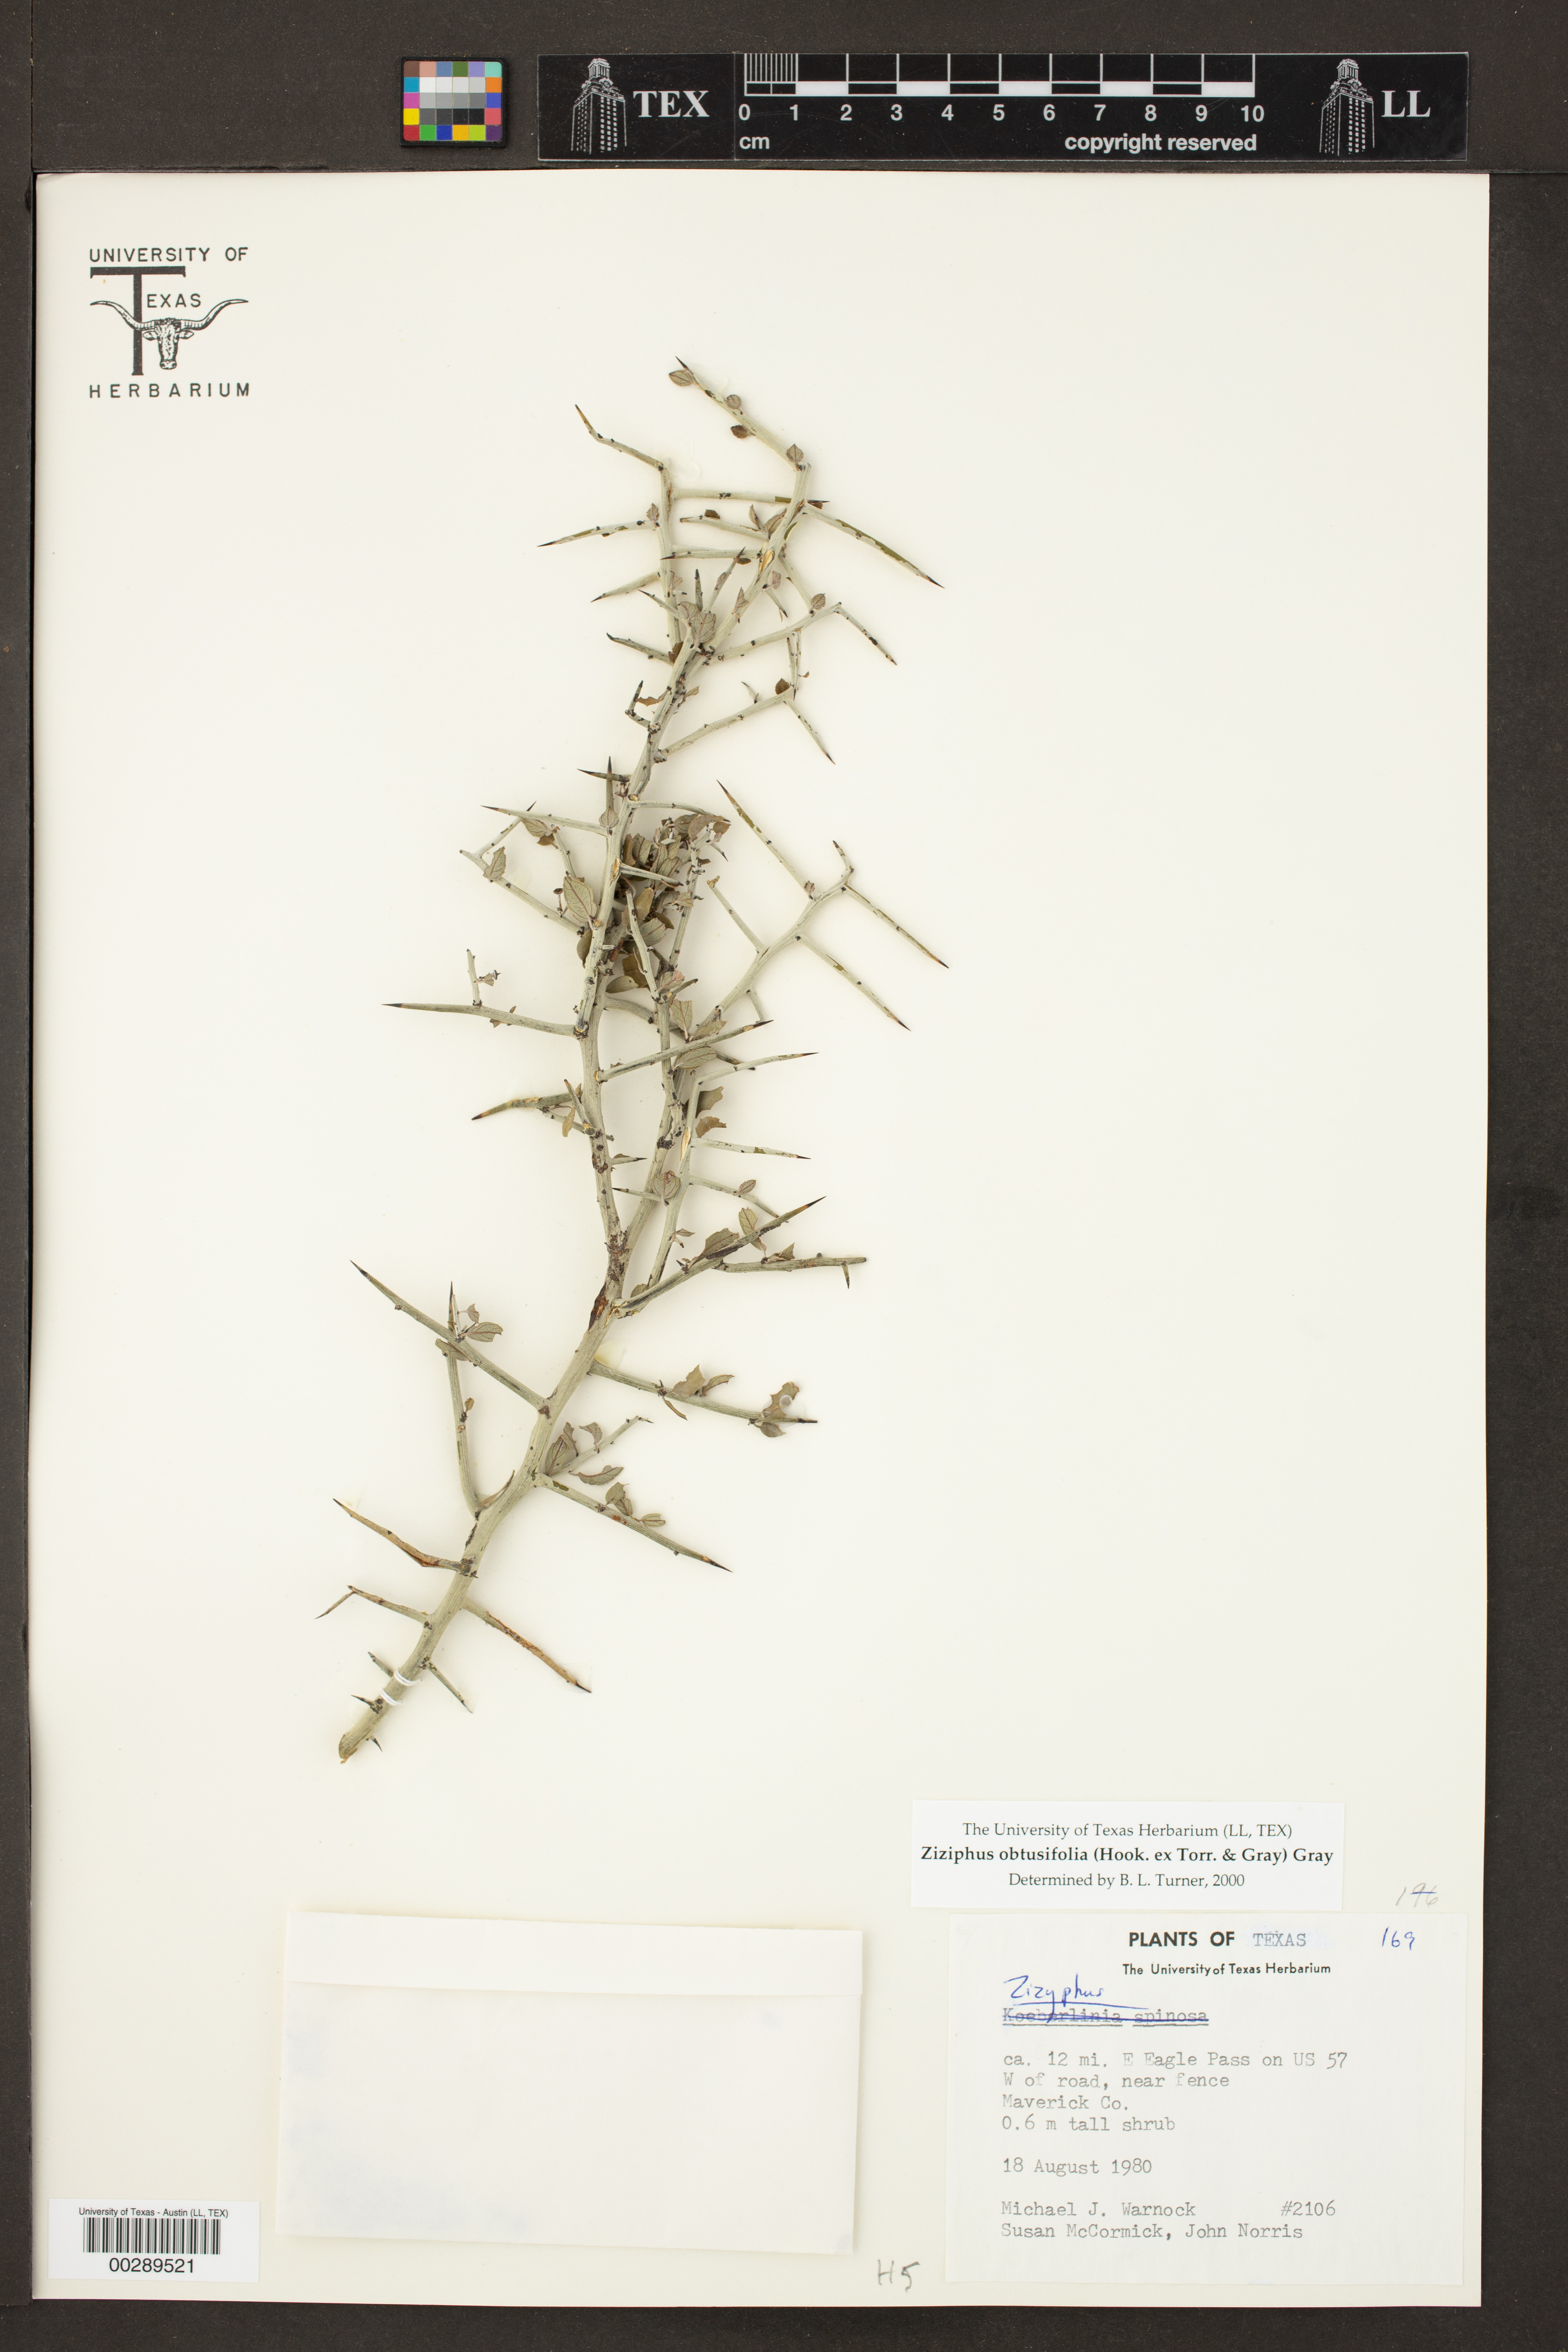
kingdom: Plantae
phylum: Tracheophyta
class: Magnoliopsida
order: Rosales
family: Rhamnaceae
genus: Sarcomphalus
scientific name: Sarcomphalus obtusifolius
